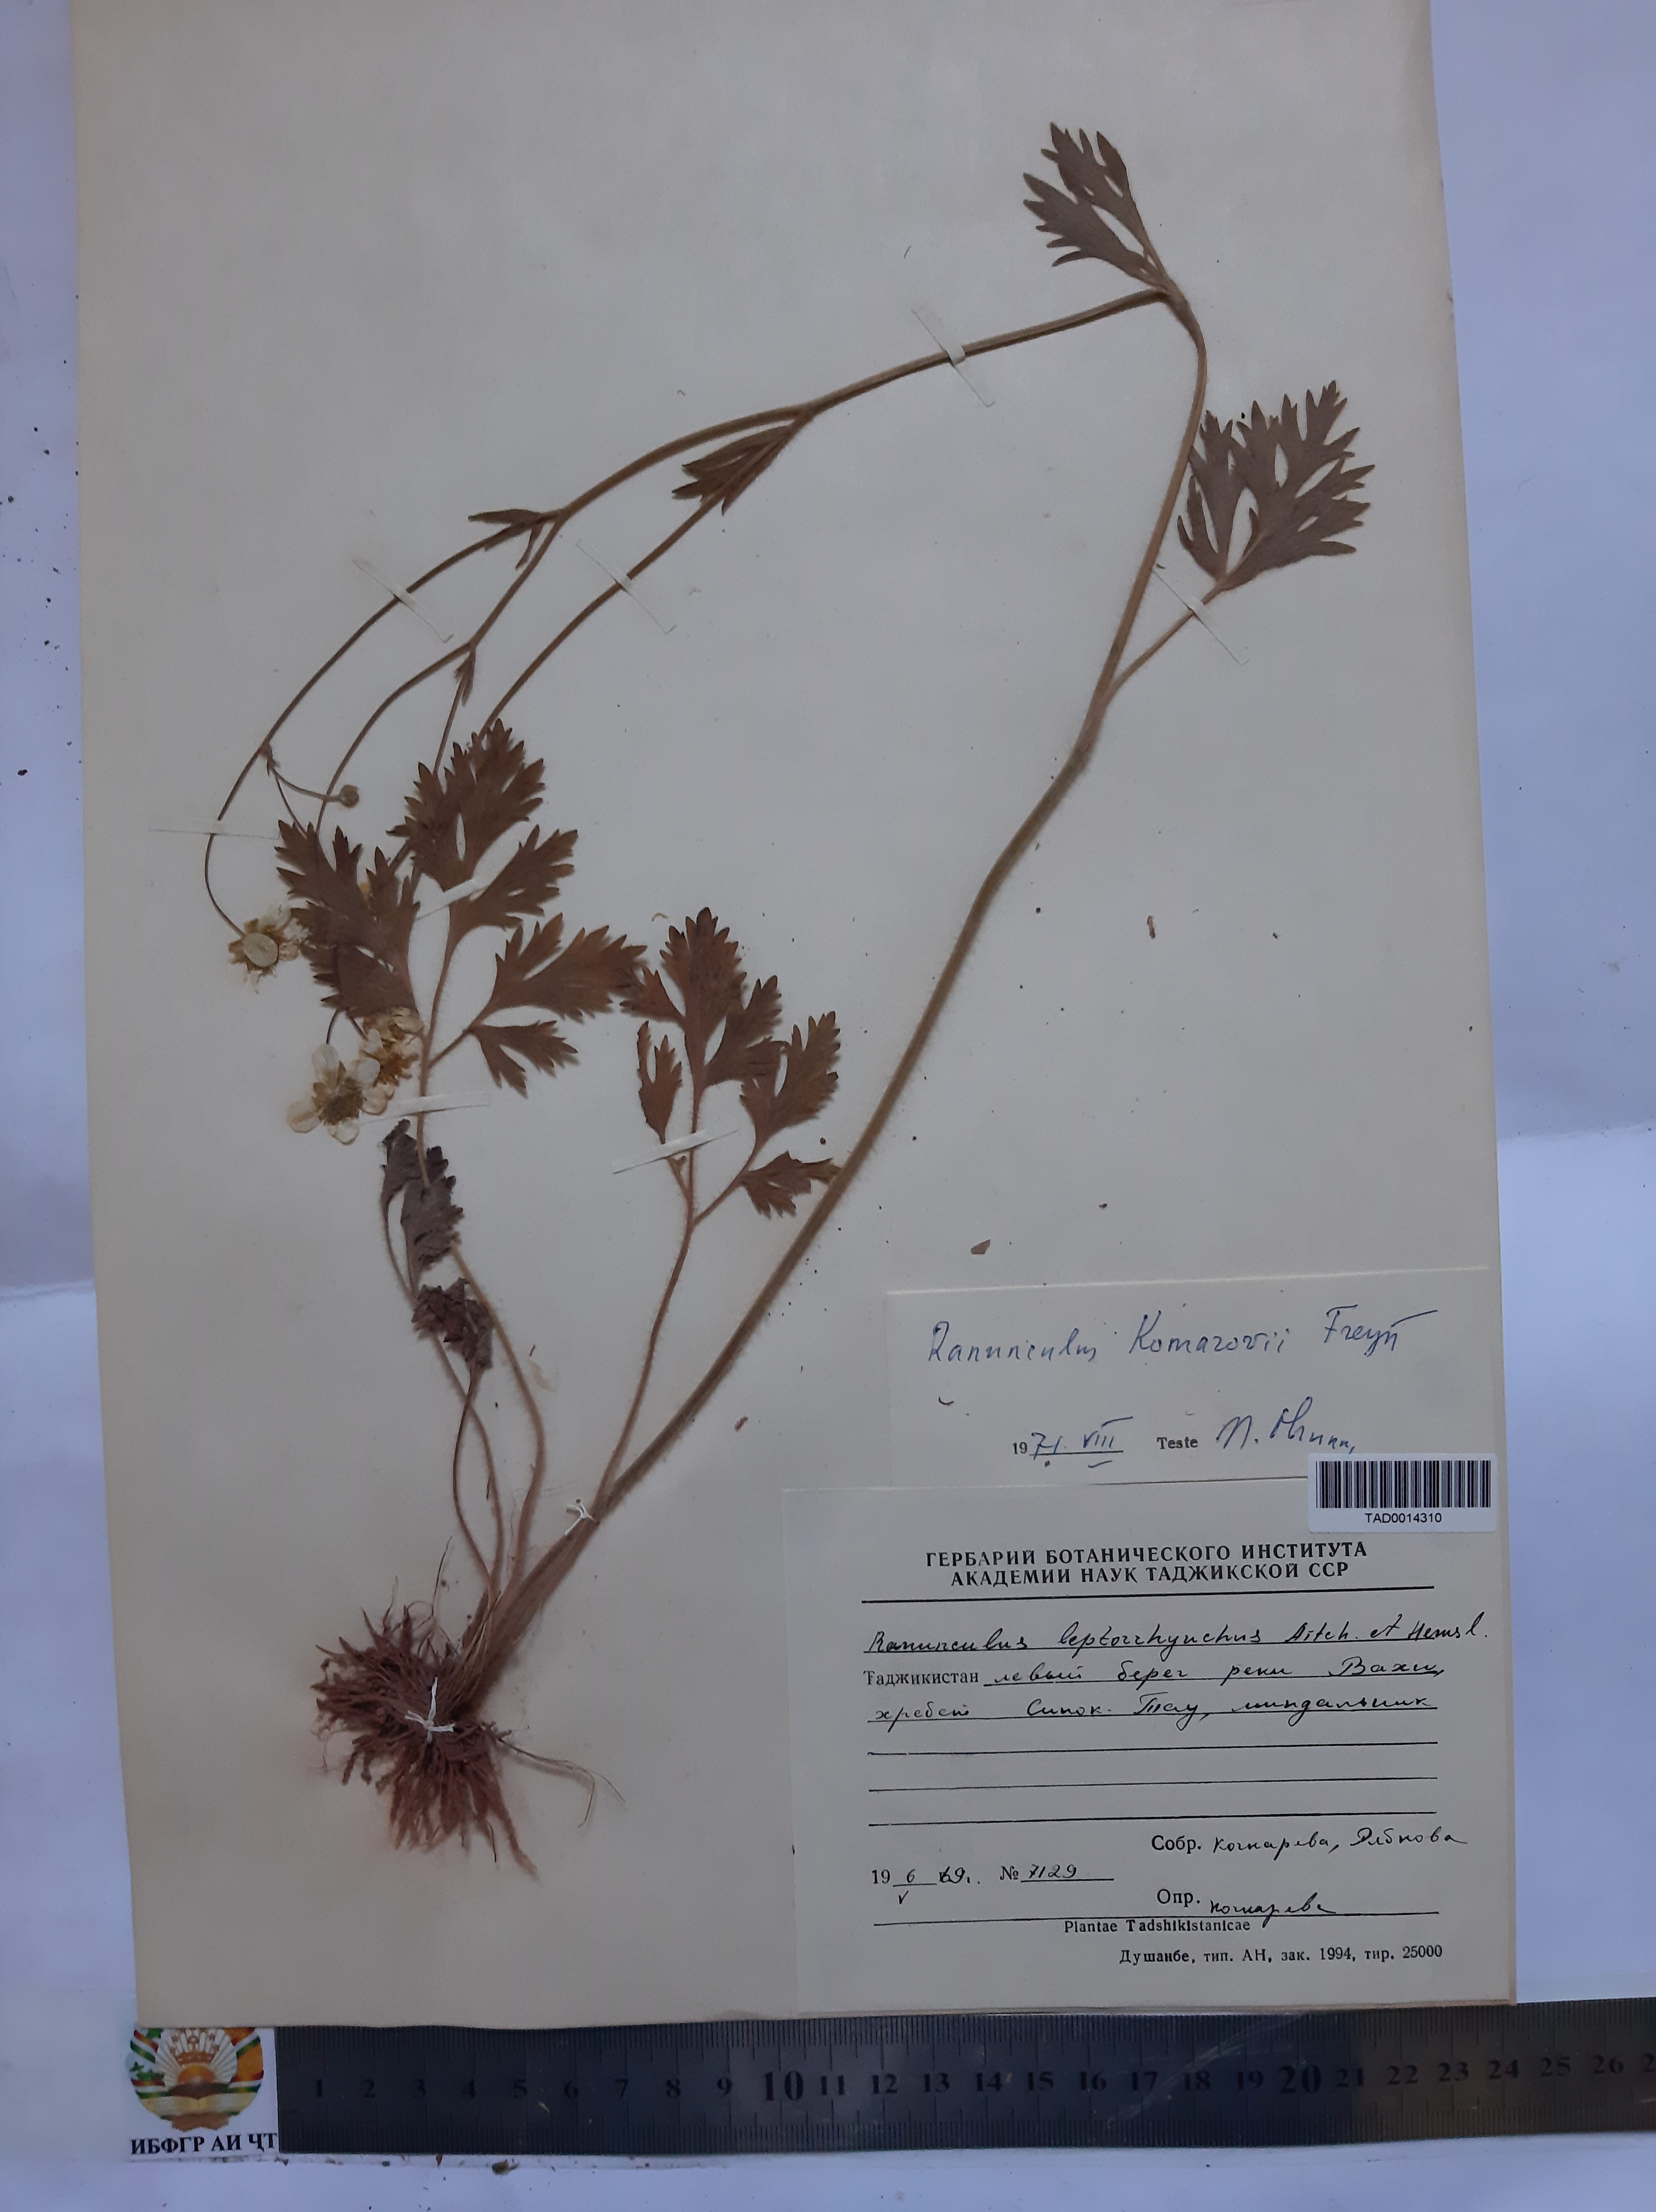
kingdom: Plantae
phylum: Tracheophyta
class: Magnoliopsida
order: Ranunculales
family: Ranunculaceae
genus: Ranunculus
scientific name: Ranunculus leptorrhynchus
